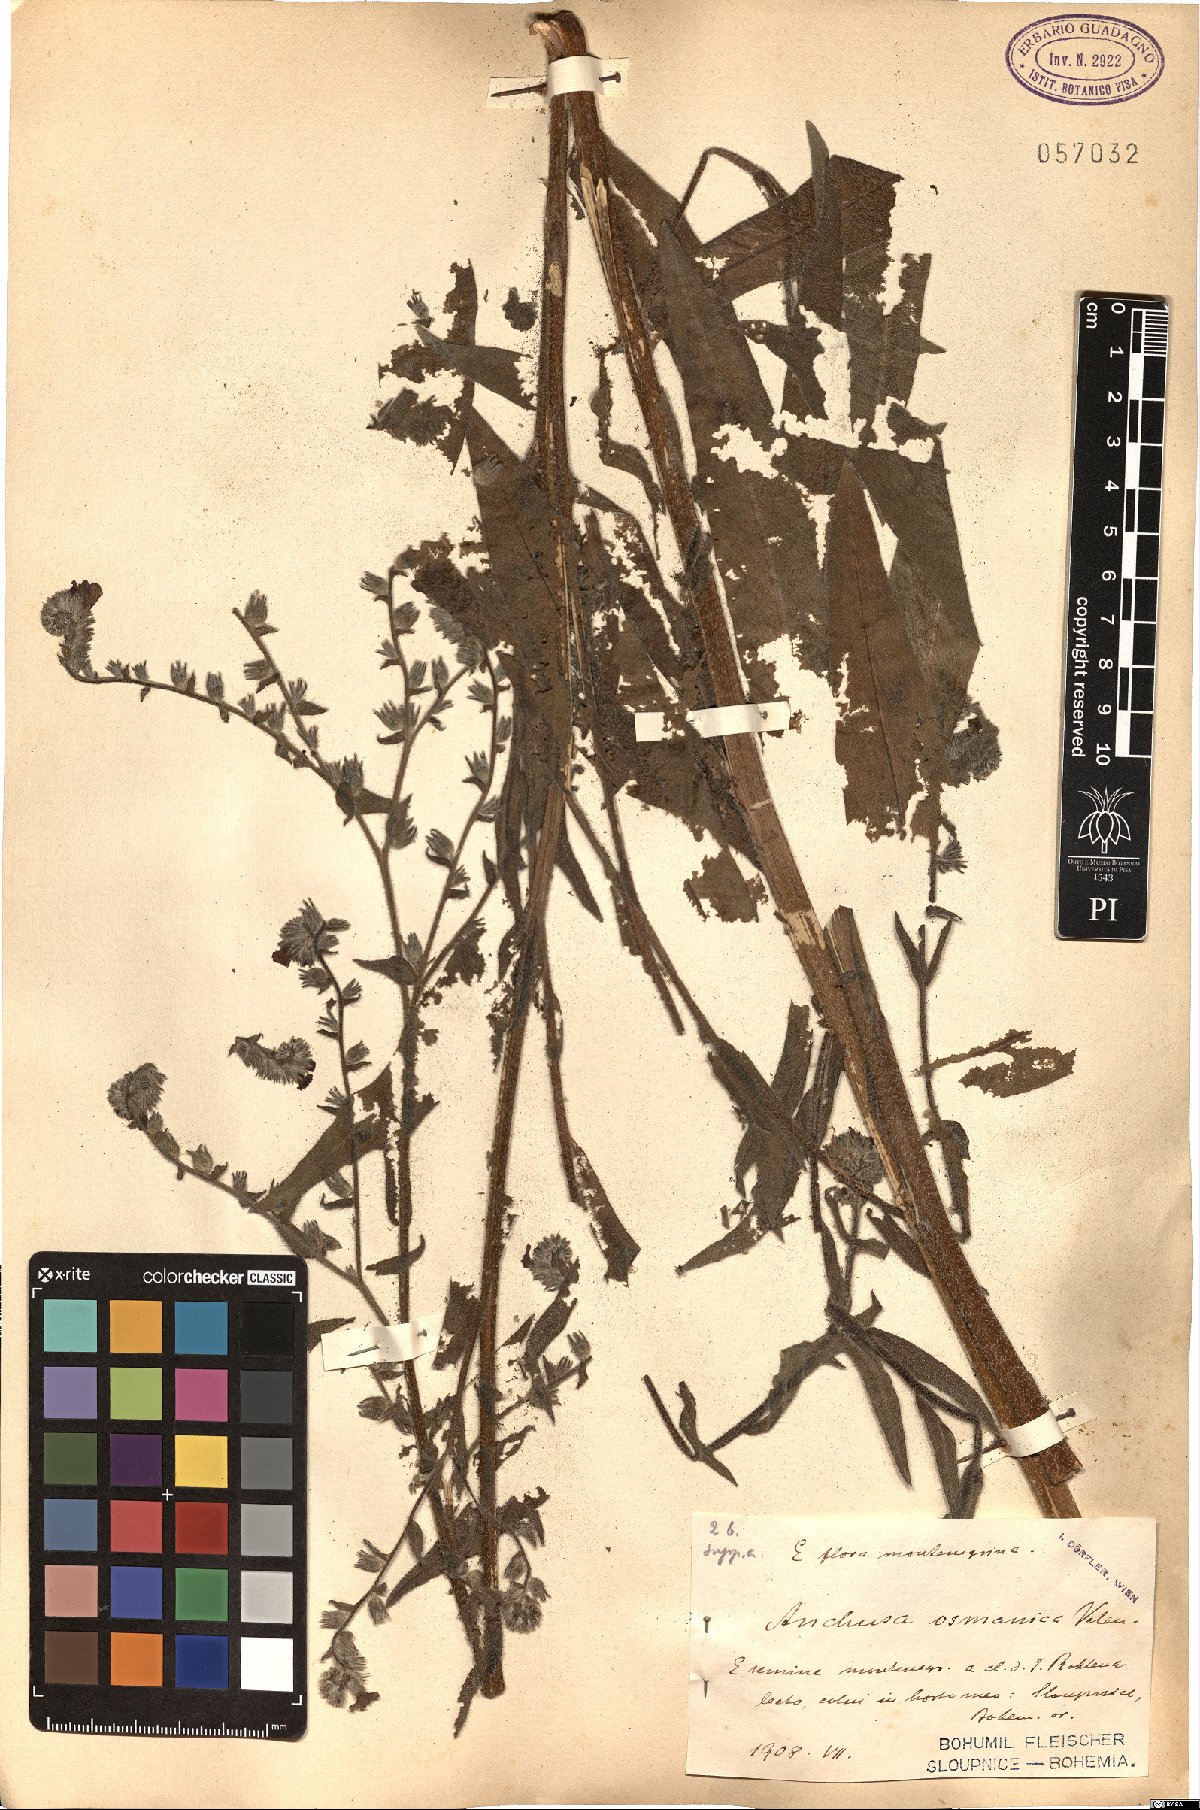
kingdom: Plantae
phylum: Tracheophyta
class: Magnoliopsida
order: Boraginales
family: Boraginaceae
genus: Anchusa
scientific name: Anchusa officinalis
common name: Alkanet
